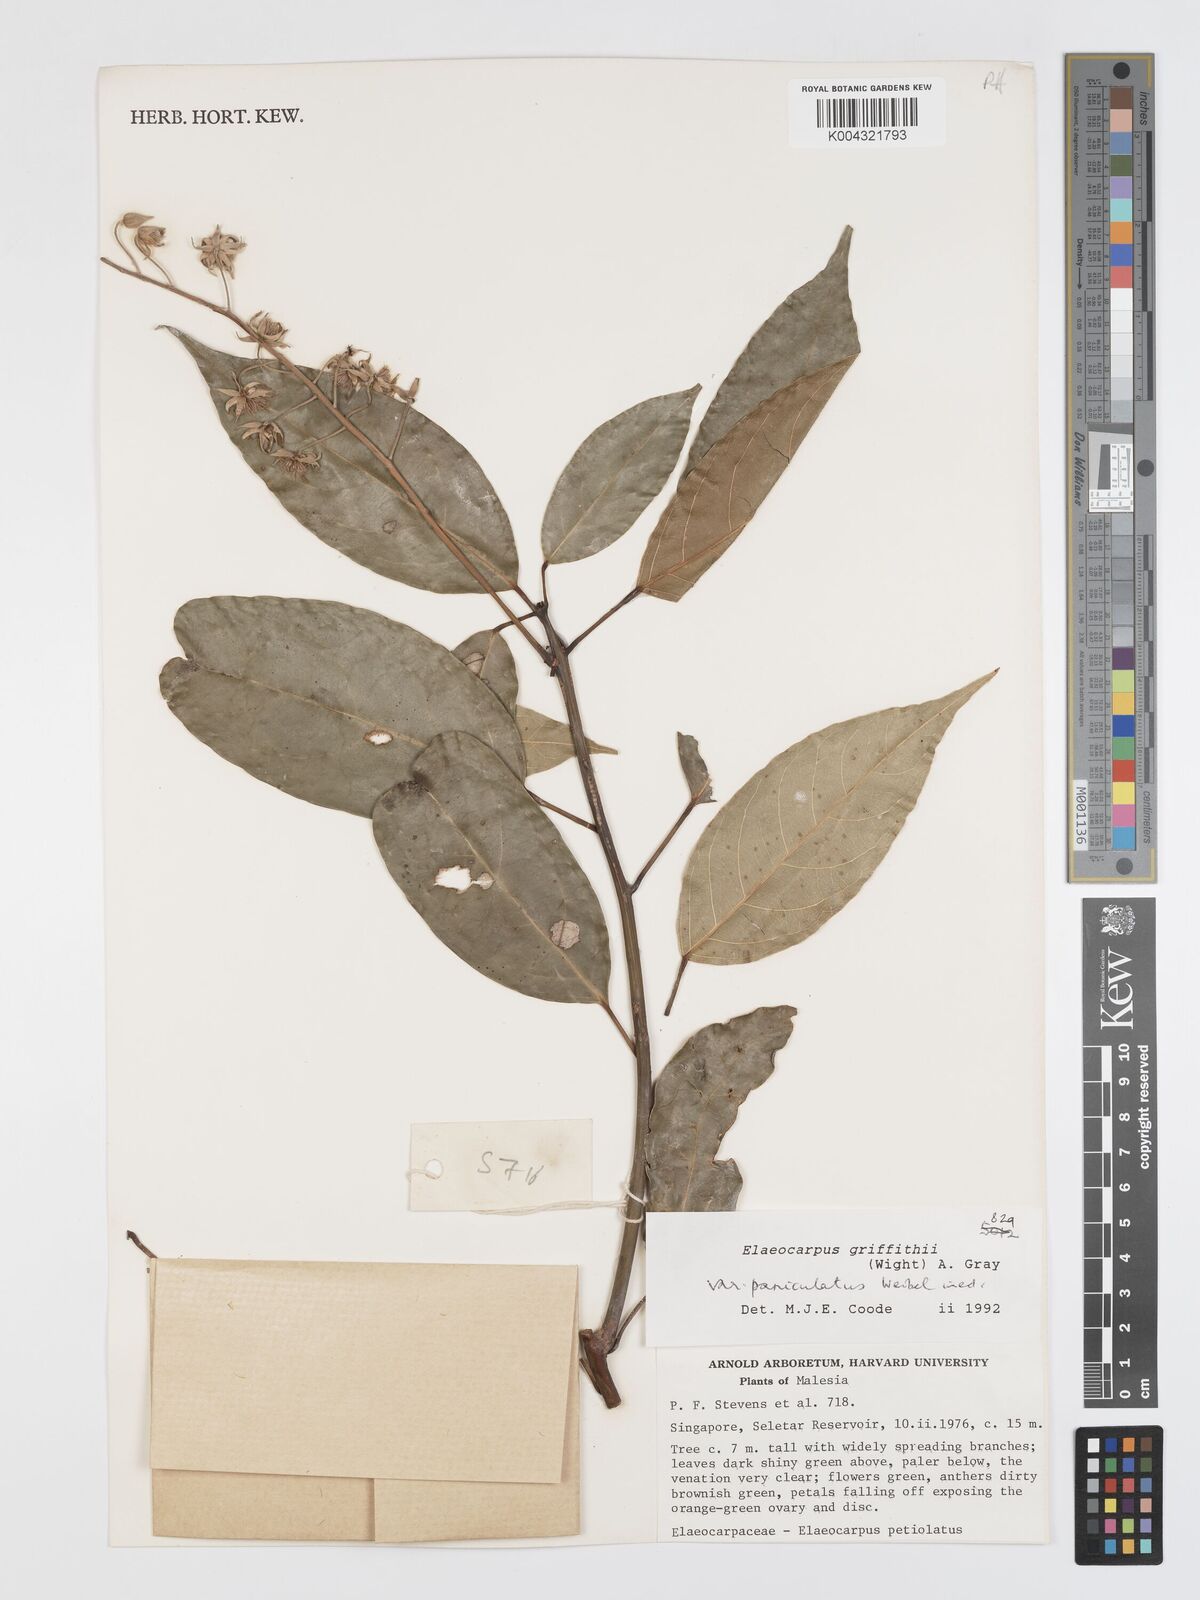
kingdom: Plantae
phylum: Tracheophyta
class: Magnoliopsida
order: Oxalidales
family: Elaeocarpaceae
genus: Elaeocarpus
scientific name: Elaeocarpus griffithii
